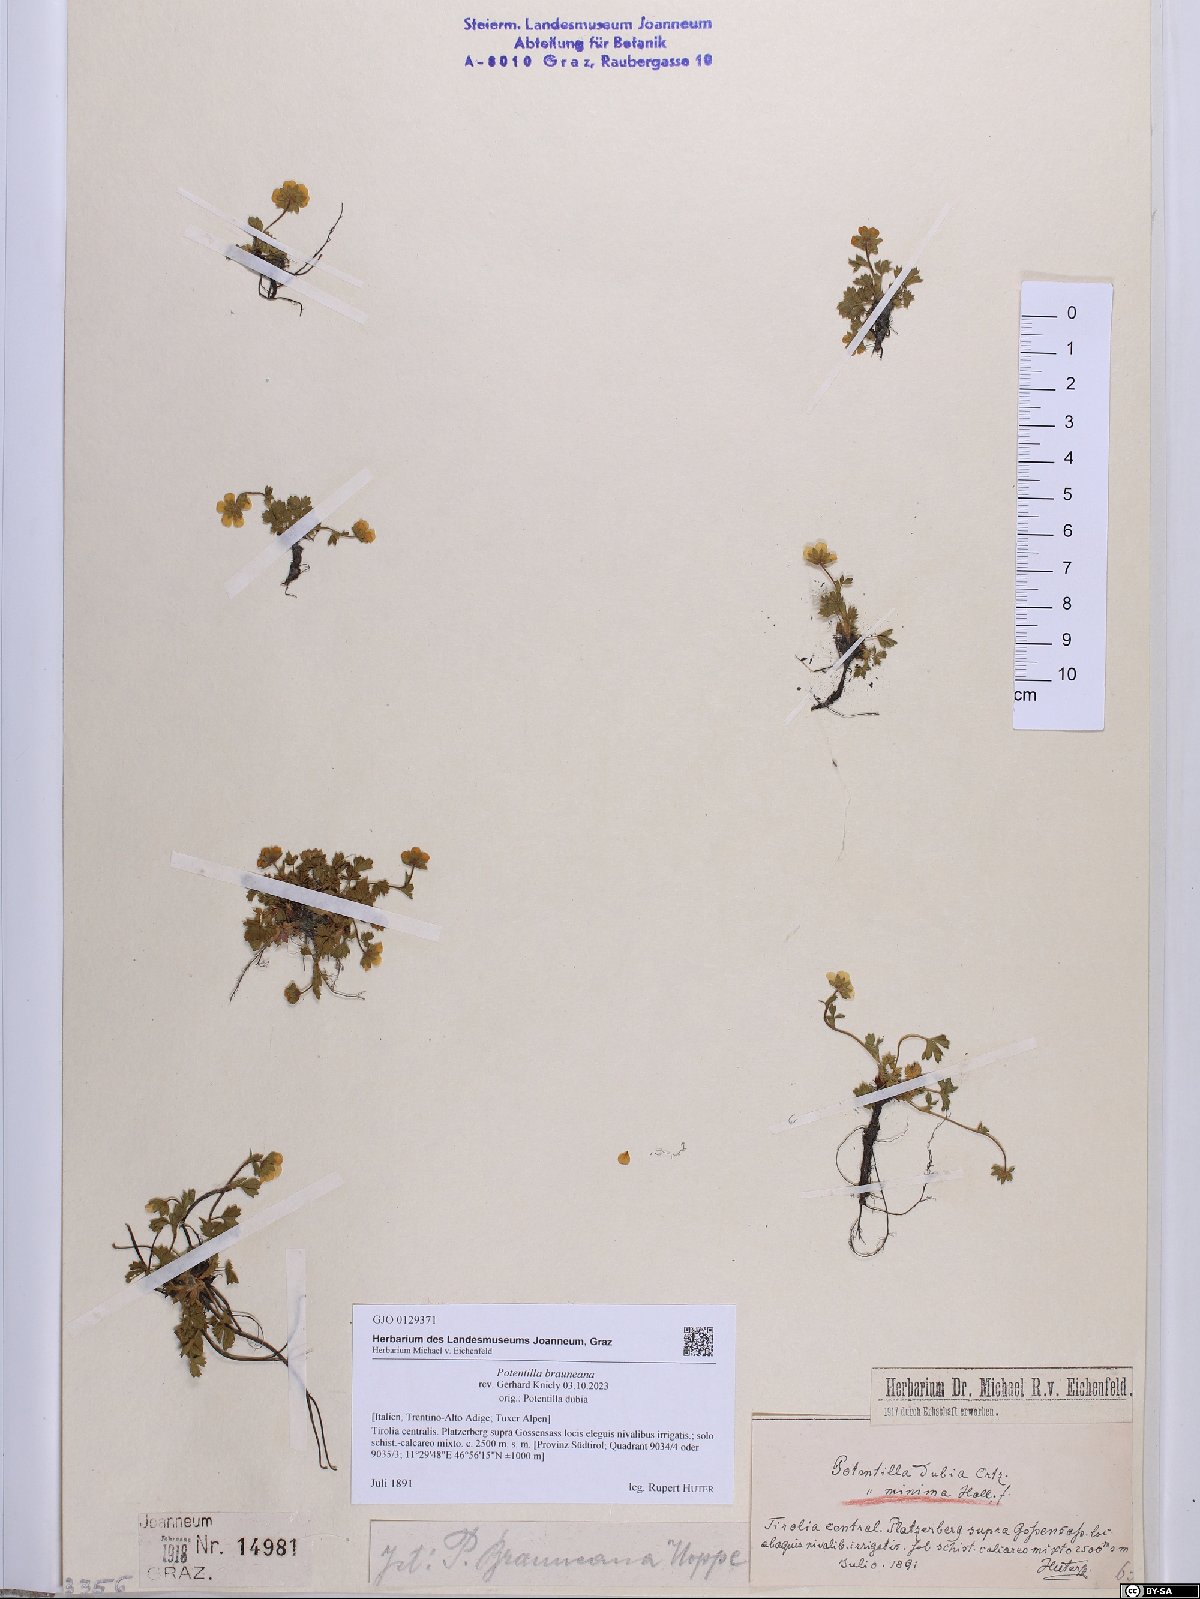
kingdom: Plantae
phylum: Tracheophyta
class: Magnoliopsida
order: Rosales
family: Rosaceae
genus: Potentilla
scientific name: Potentilla brauneana
